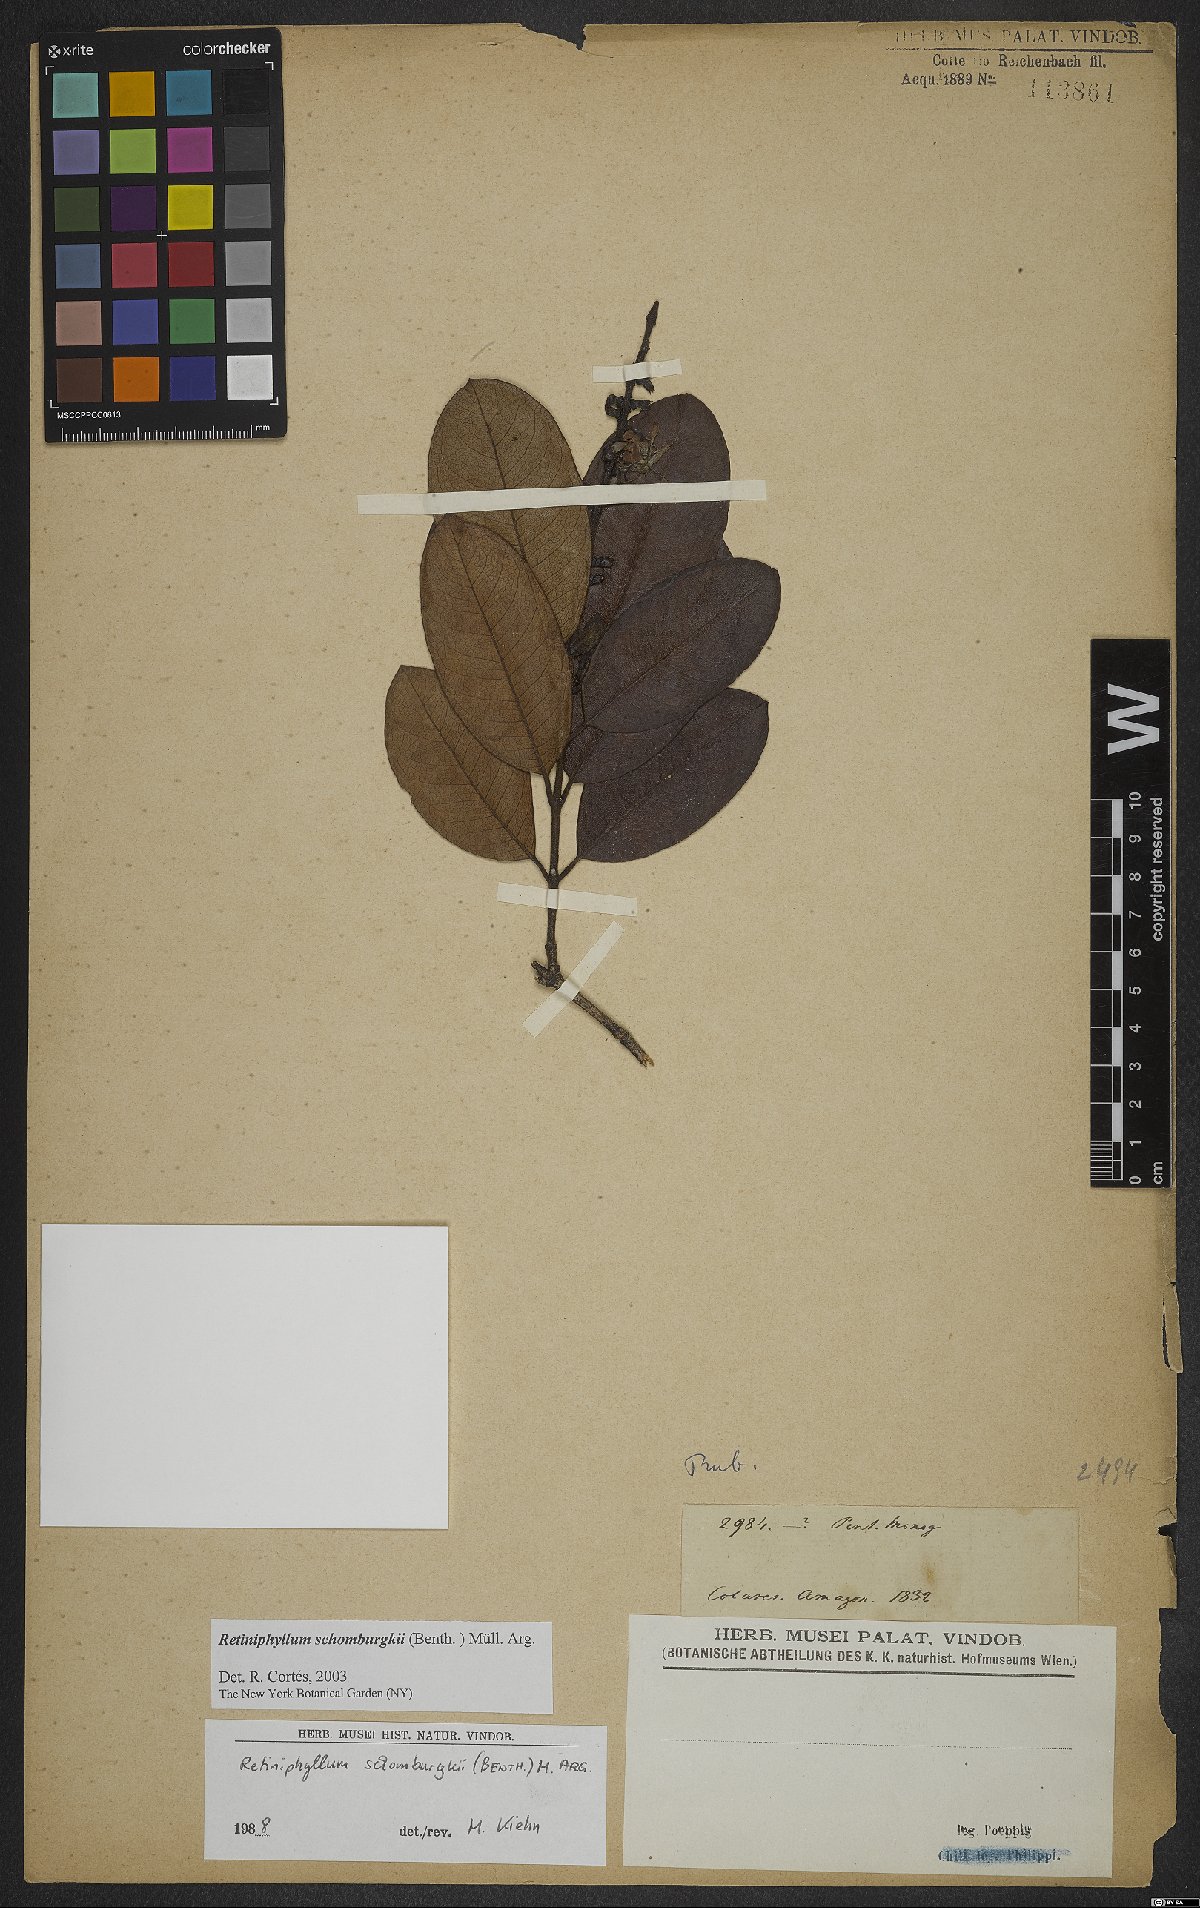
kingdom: Plantae
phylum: Tracheophyta
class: Magnoliopsida
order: Gentianales
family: Rubiaceae
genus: Retiniphyllum
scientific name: Retiniphyllum schomburgkii
